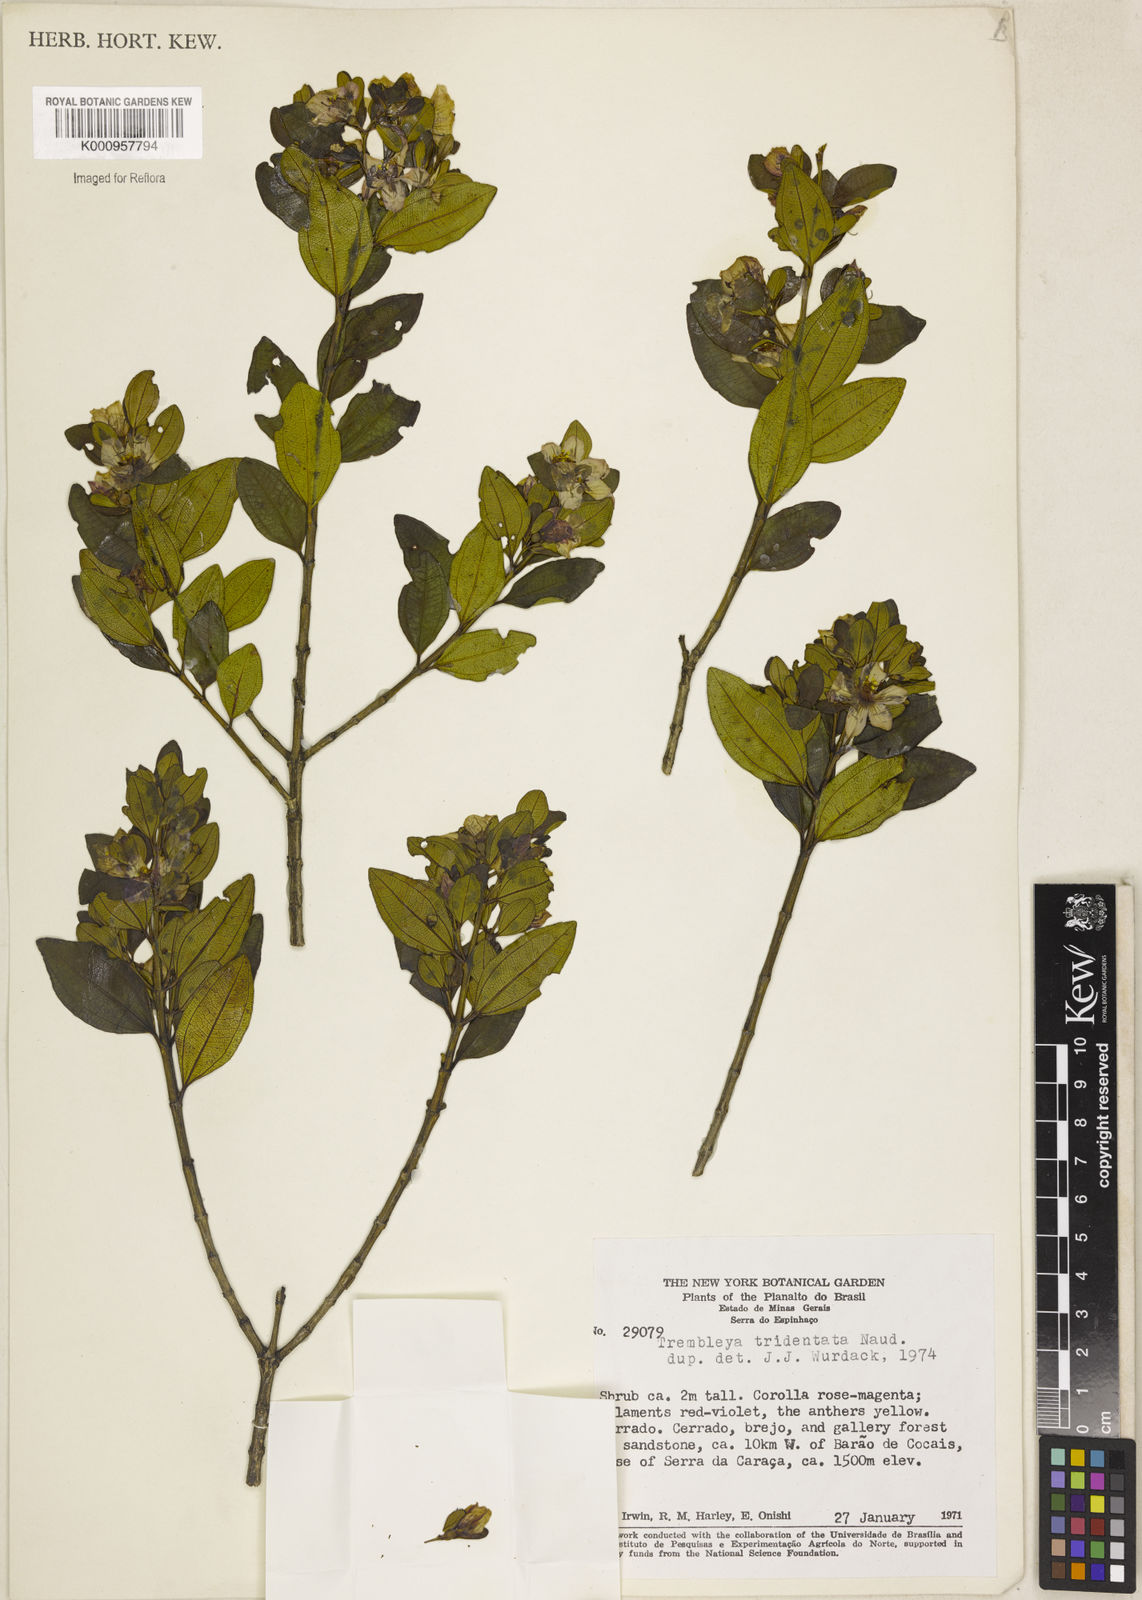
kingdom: Plantae
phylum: Tracheophyta
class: Magnoliopsida
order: Myrtales
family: Melastomataceae
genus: Microlicia
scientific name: Microlicia tridentata
